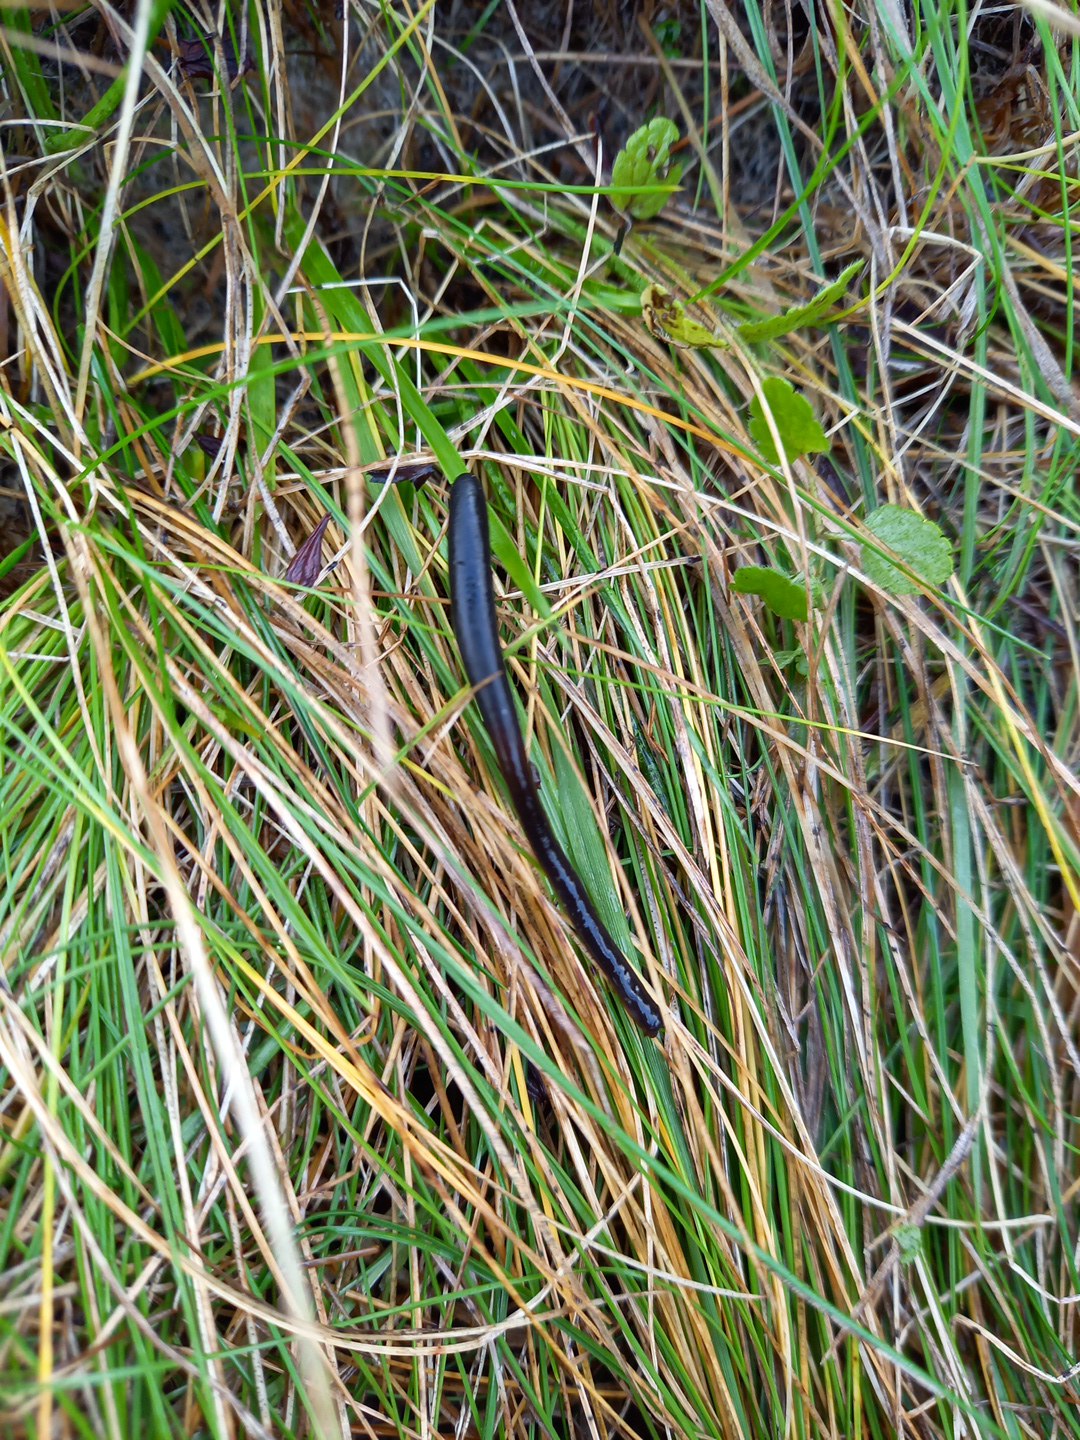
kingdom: Fungi
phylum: Ascomycota
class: Geoglossomycetes
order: Geoglossales
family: Geoglossaceae
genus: Glutinoglossum
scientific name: Glutinoglossum
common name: jordtunge
